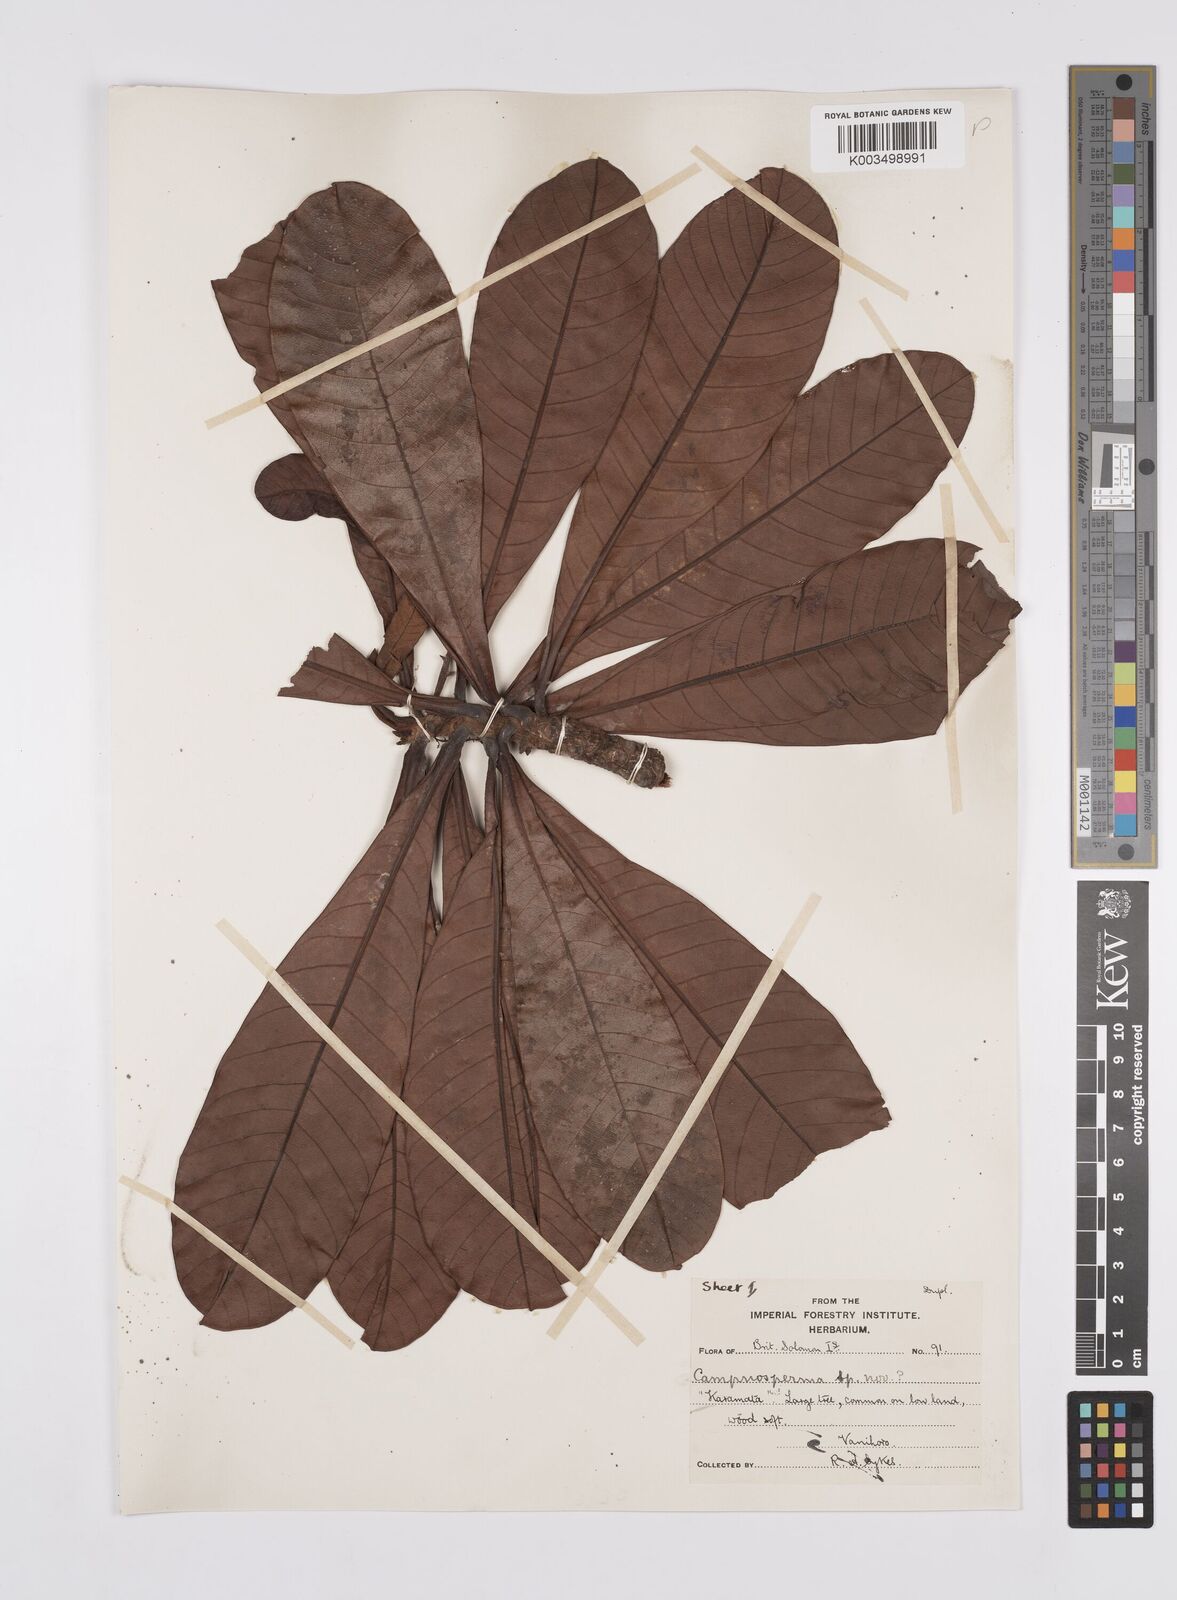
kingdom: Plantae
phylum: Tracheophyta
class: Magnoliopsida
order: Sapindales
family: Anacardiaceae
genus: Campnosperma
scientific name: Campnosperma
